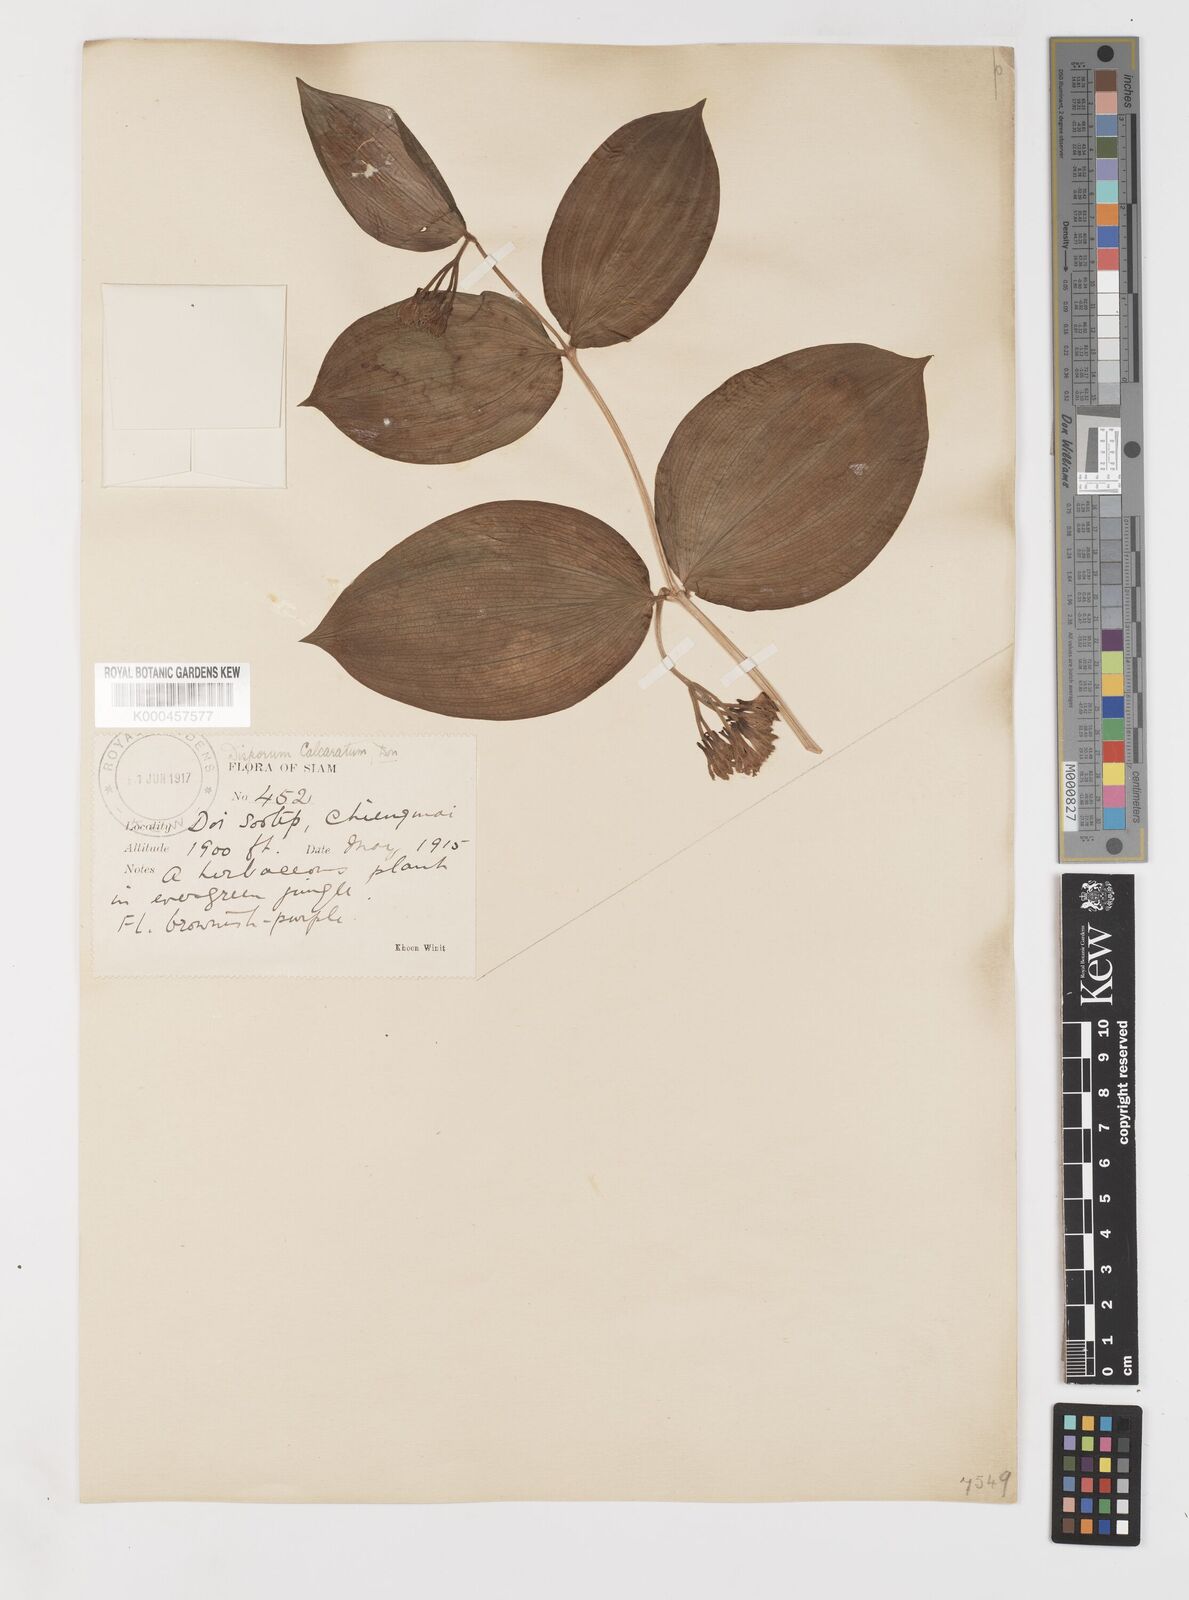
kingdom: Plantae
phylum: Tracheophyta
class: Liliopsida
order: Liliales
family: Colchicaceae
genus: Disporum
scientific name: Disporum calcaratum
